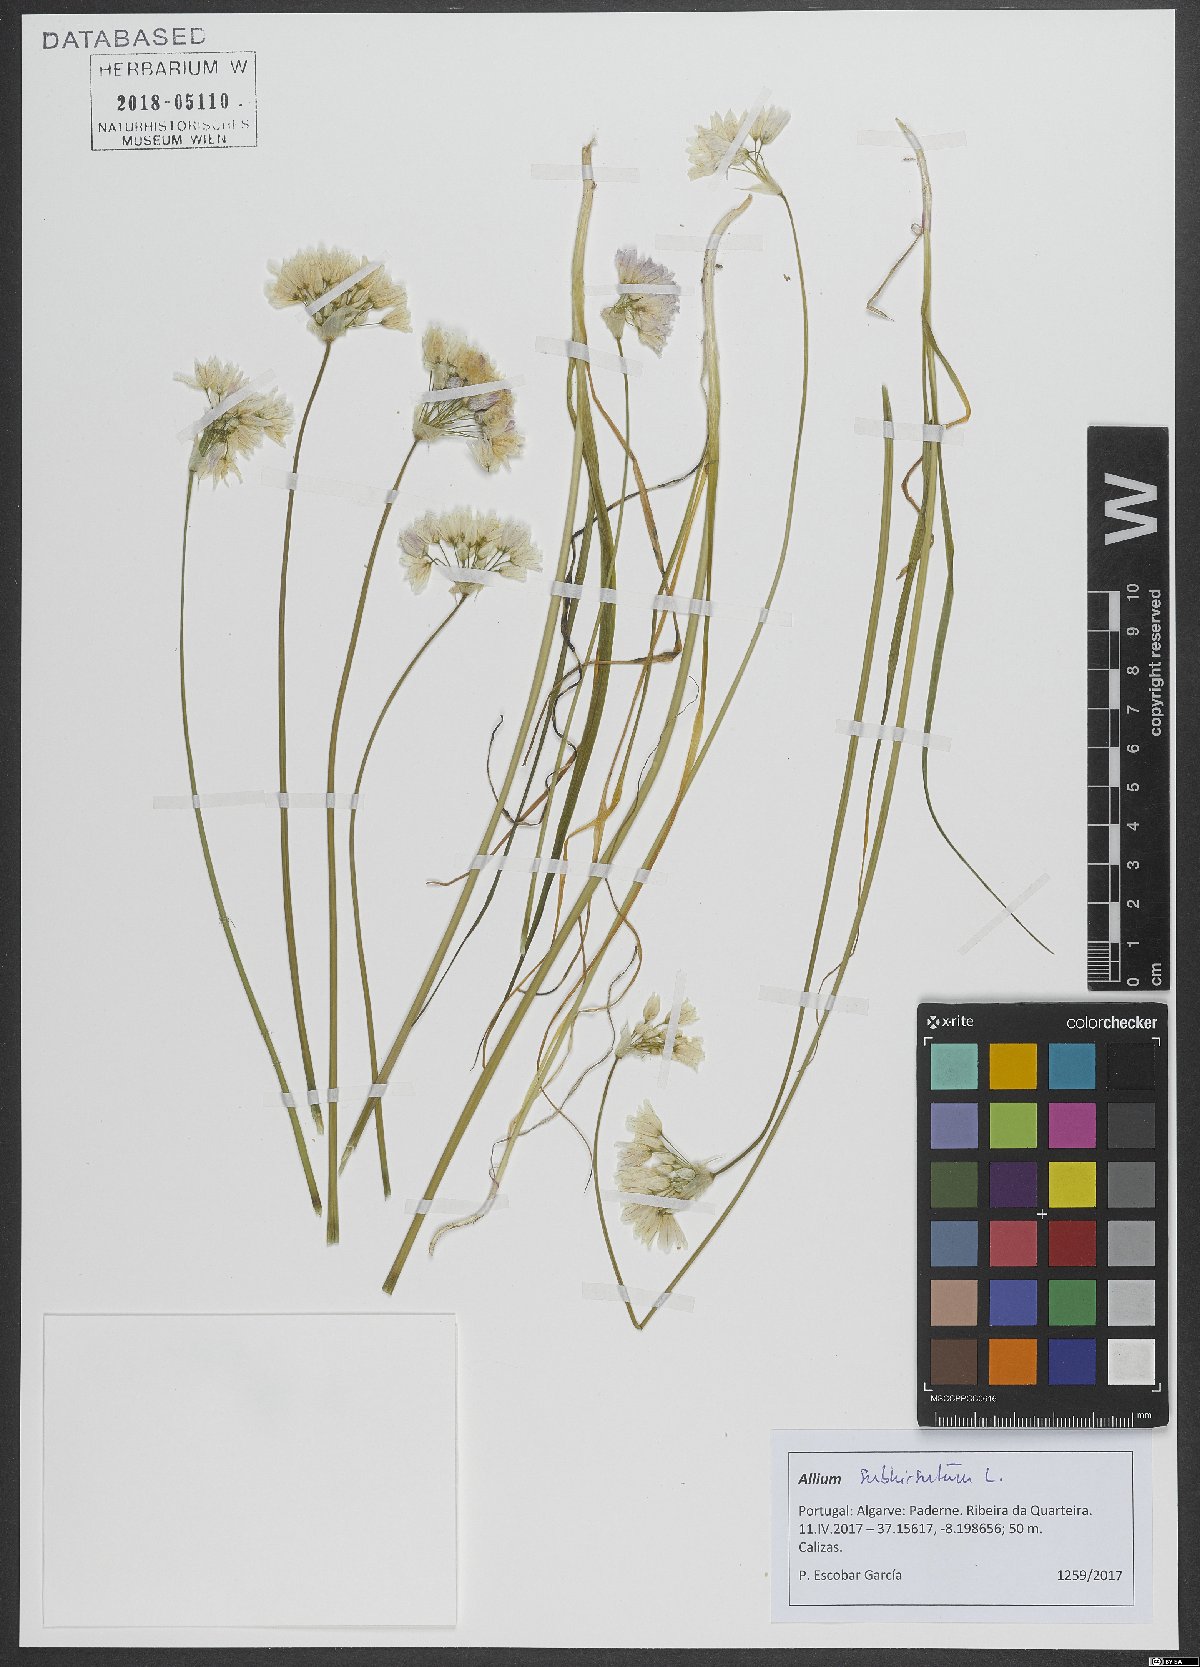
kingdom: Plantae
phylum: Tracheophyta
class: Liliopsida
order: Asparagales
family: Amaryllidaceae
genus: Allium
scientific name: Allium subhirsutum
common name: Hairy garlic
